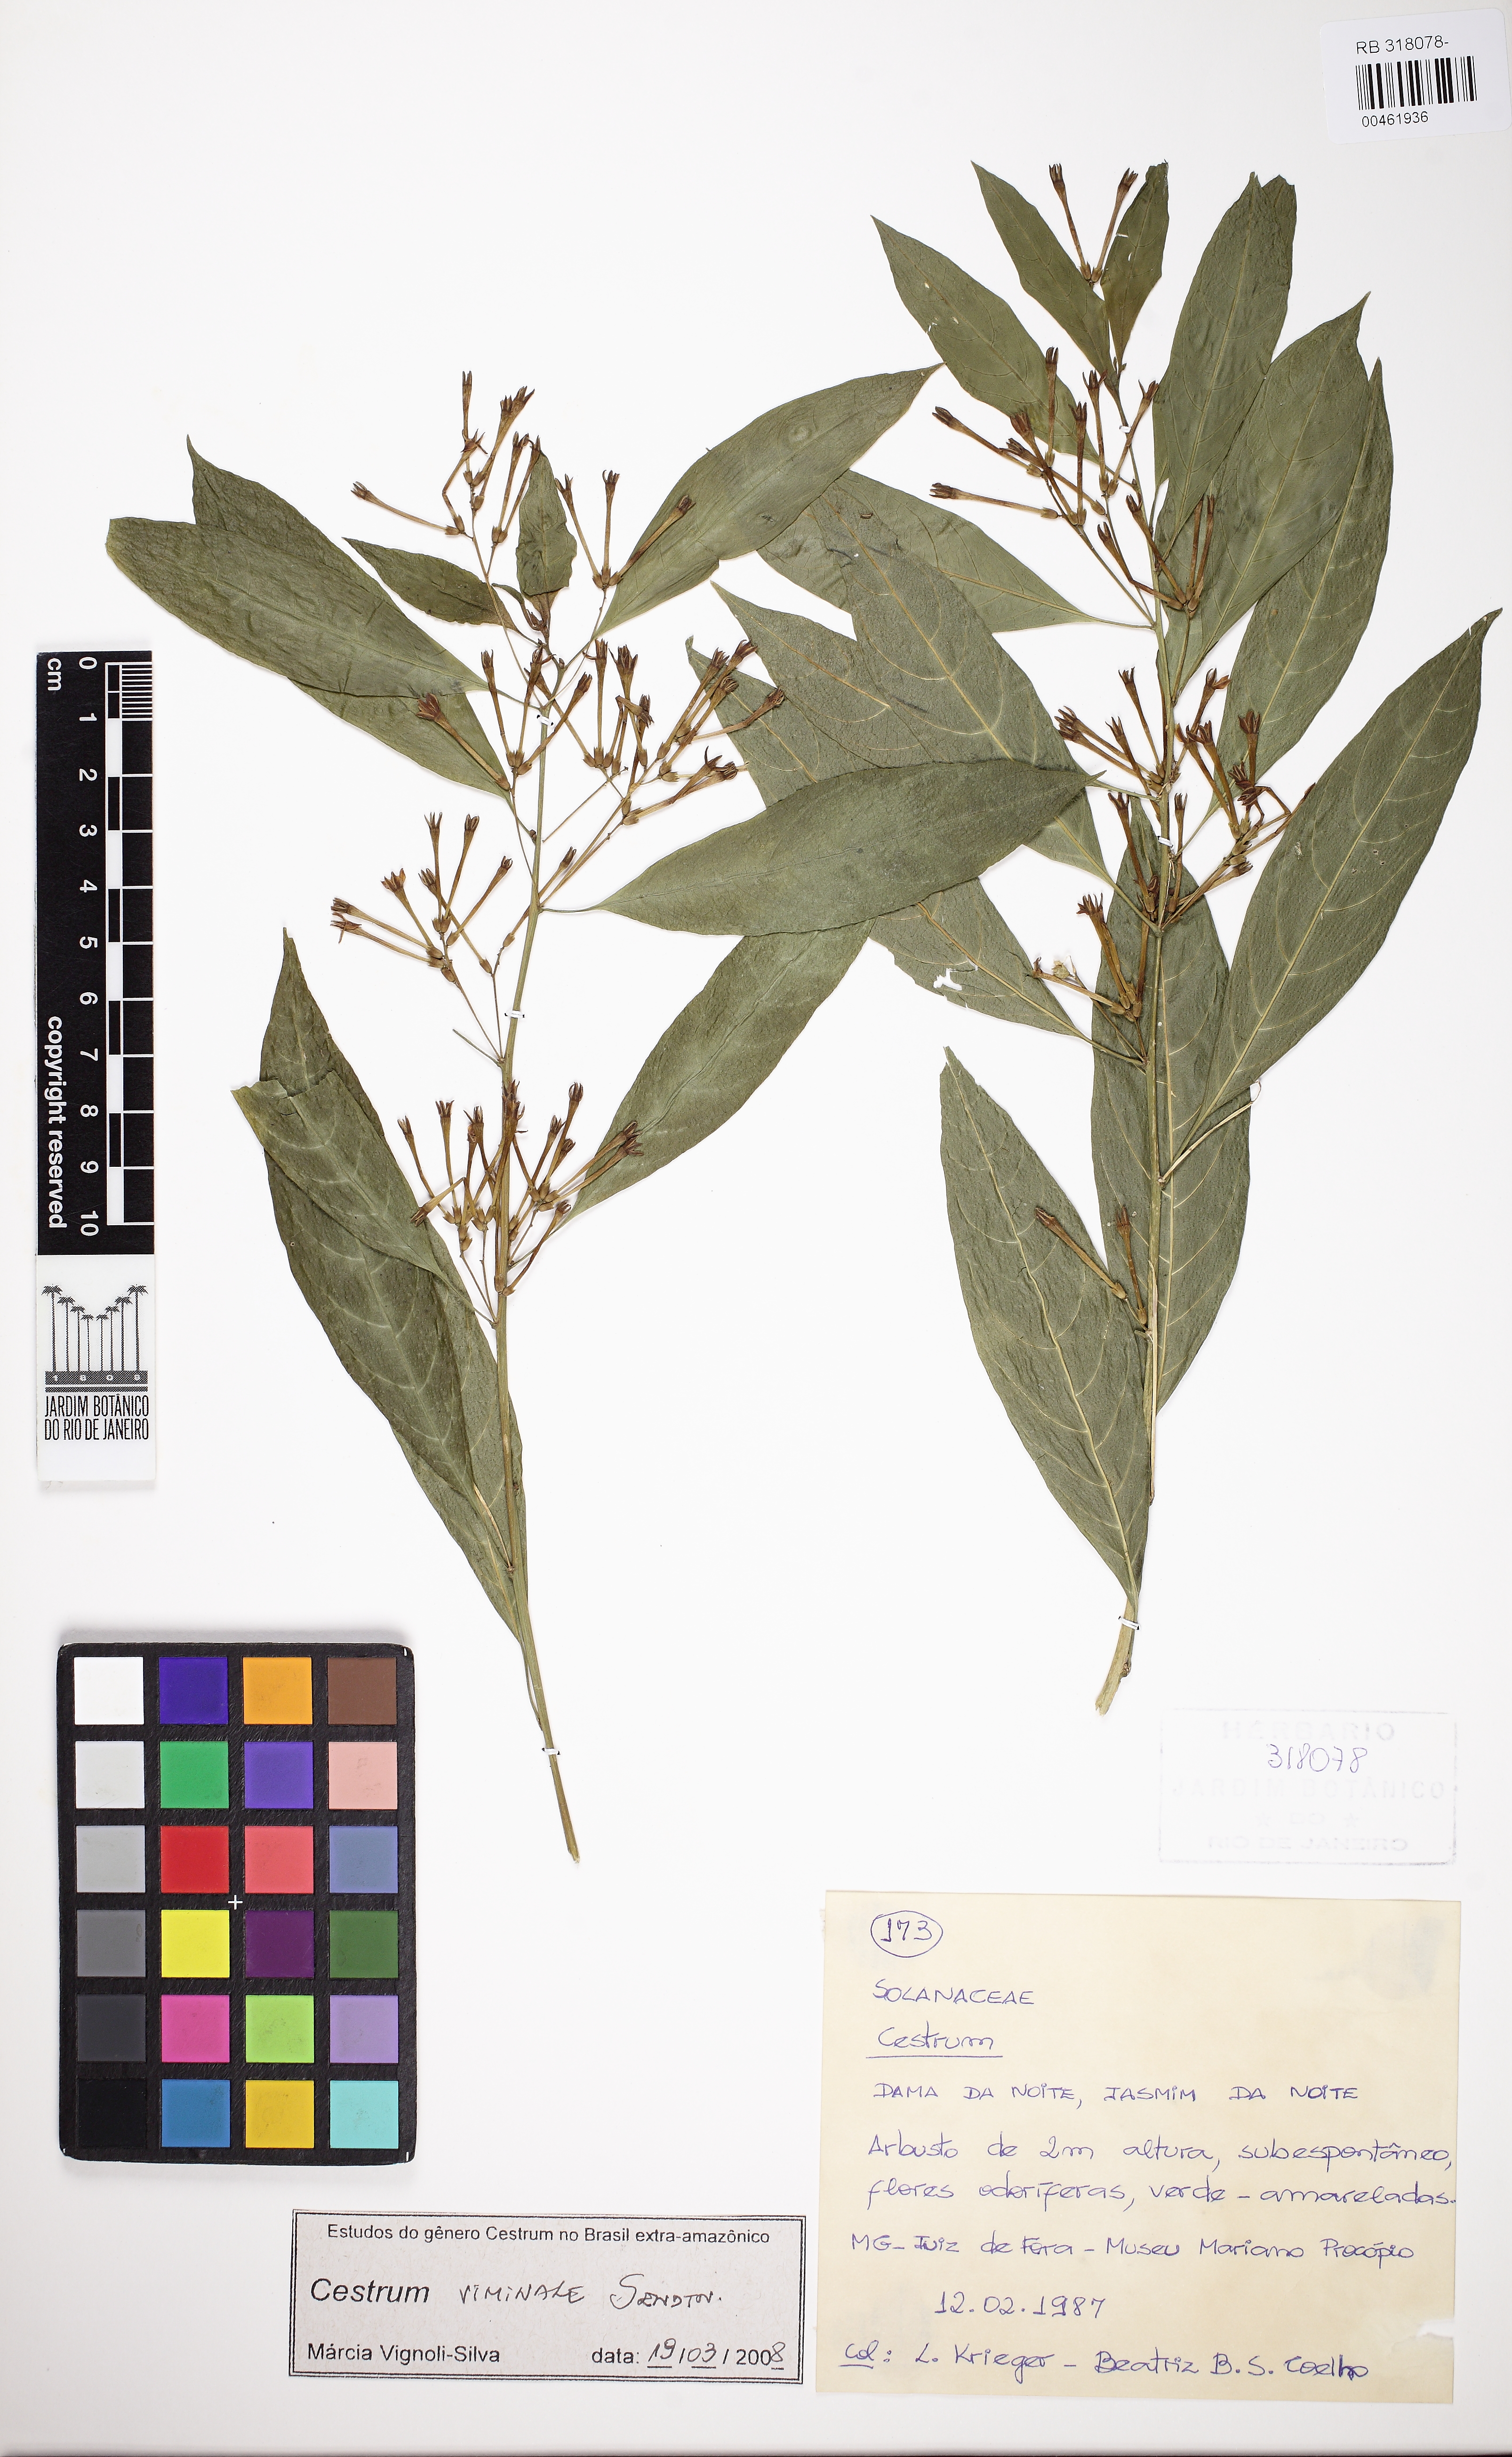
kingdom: Plantae
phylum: Tracheophyta
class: Magnoliopsida
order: Solanales
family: Solanaceae
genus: Cestrum
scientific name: Cestrum montanum
